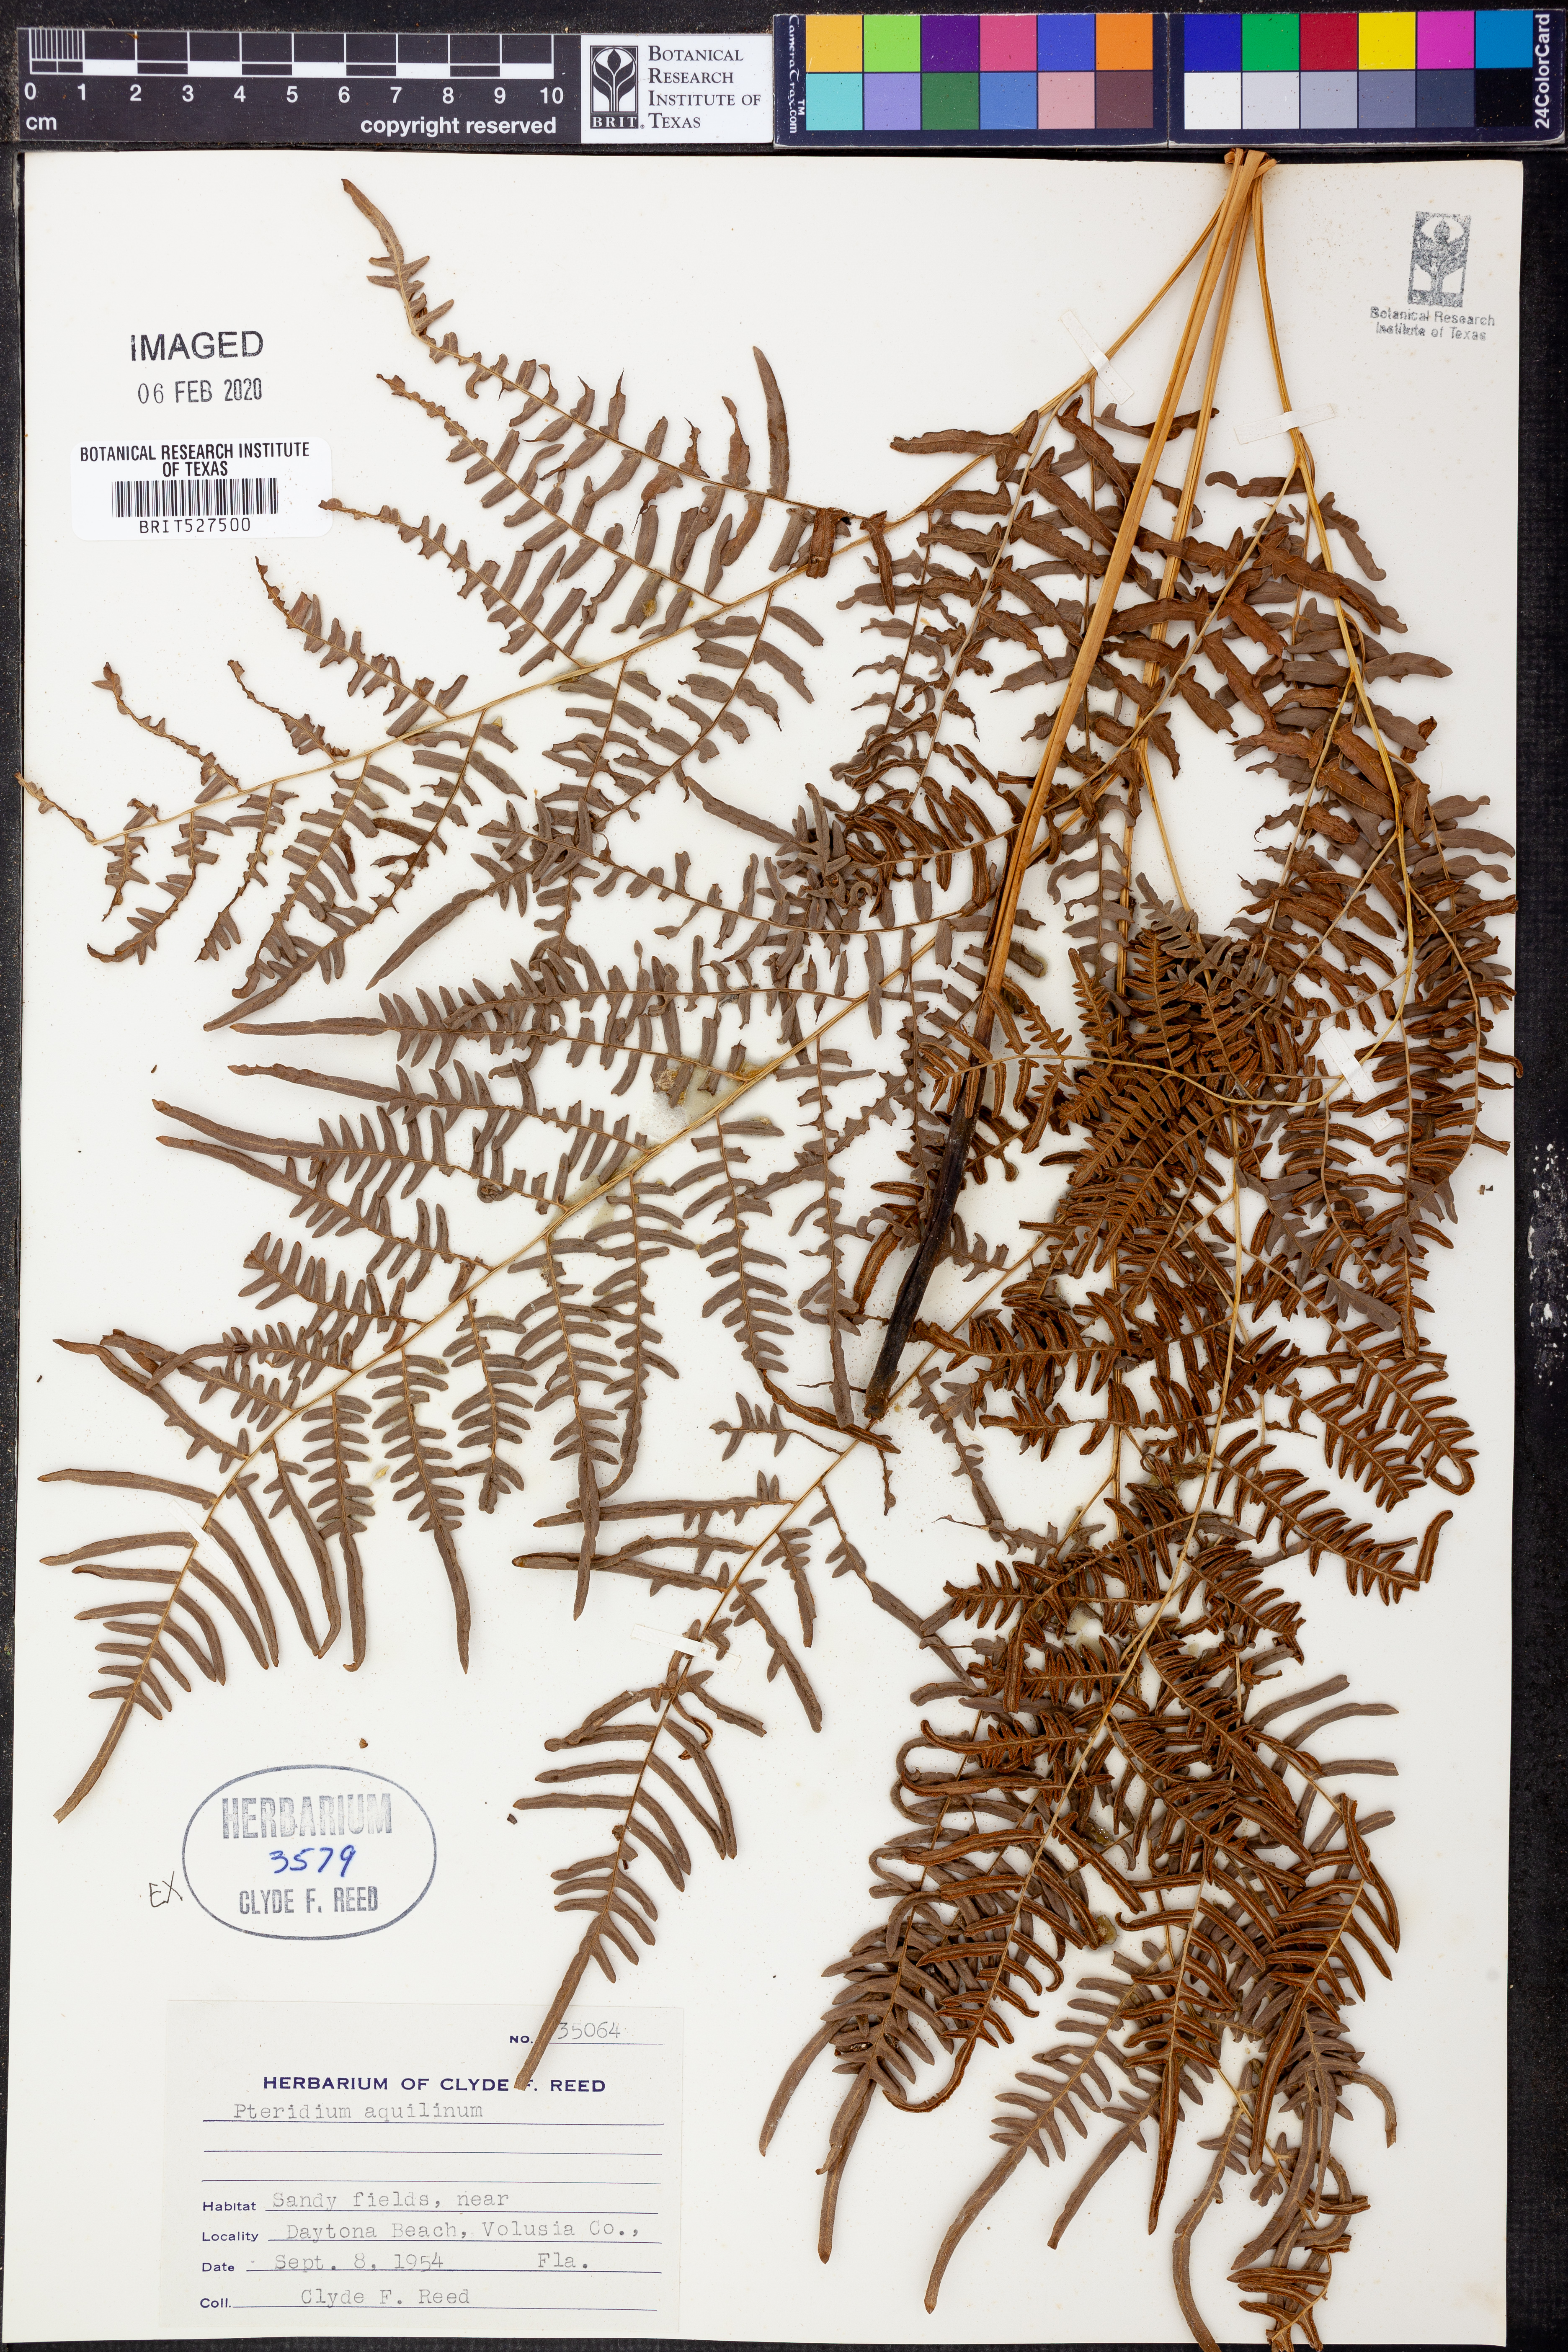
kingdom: Plantae
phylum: Tracheophyta
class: Polypodiopsida
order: Polypodiales
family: Dennstaedtiaceae
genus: Pteridium
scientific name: Pteridium aquilinum
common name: Bracken
